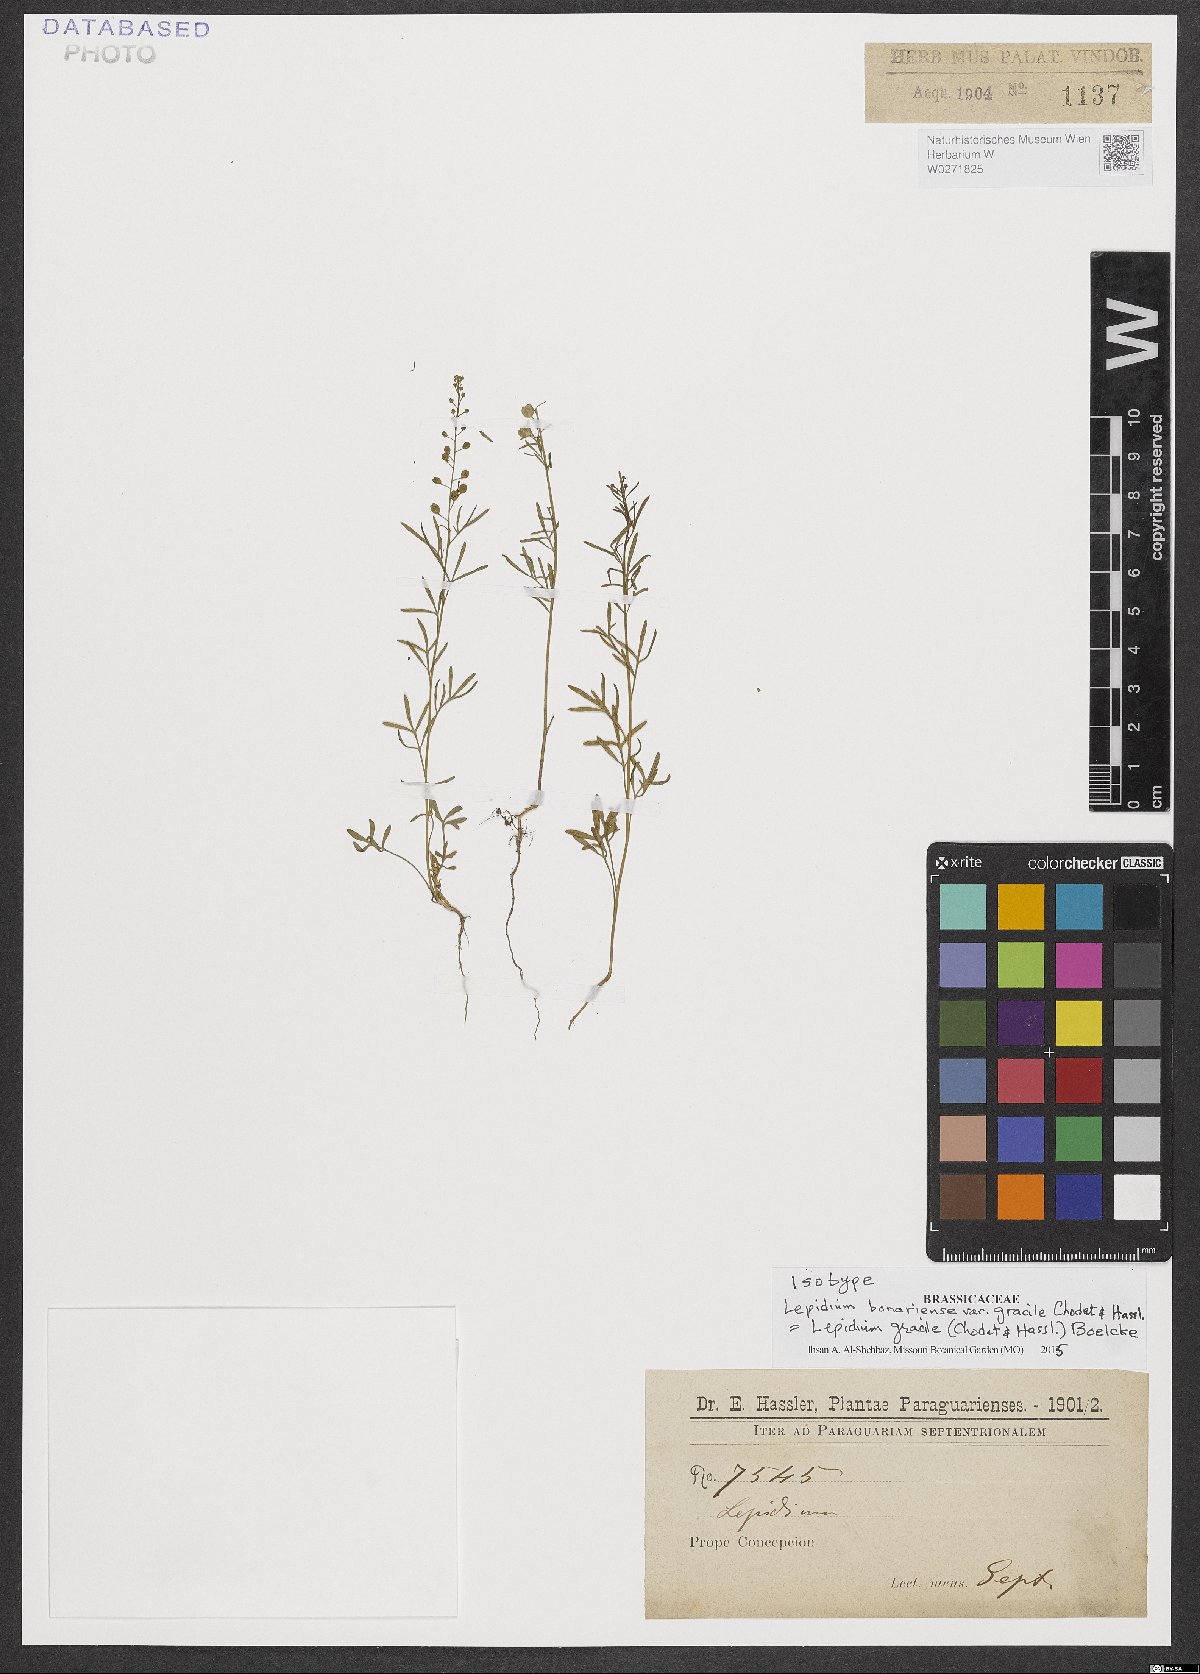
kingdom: Plantae
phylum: Tracheophyta
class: Magnoliopsida
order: Brassicales
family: Brassicaceae
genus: Lepidium
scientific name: Lepidium gracile
